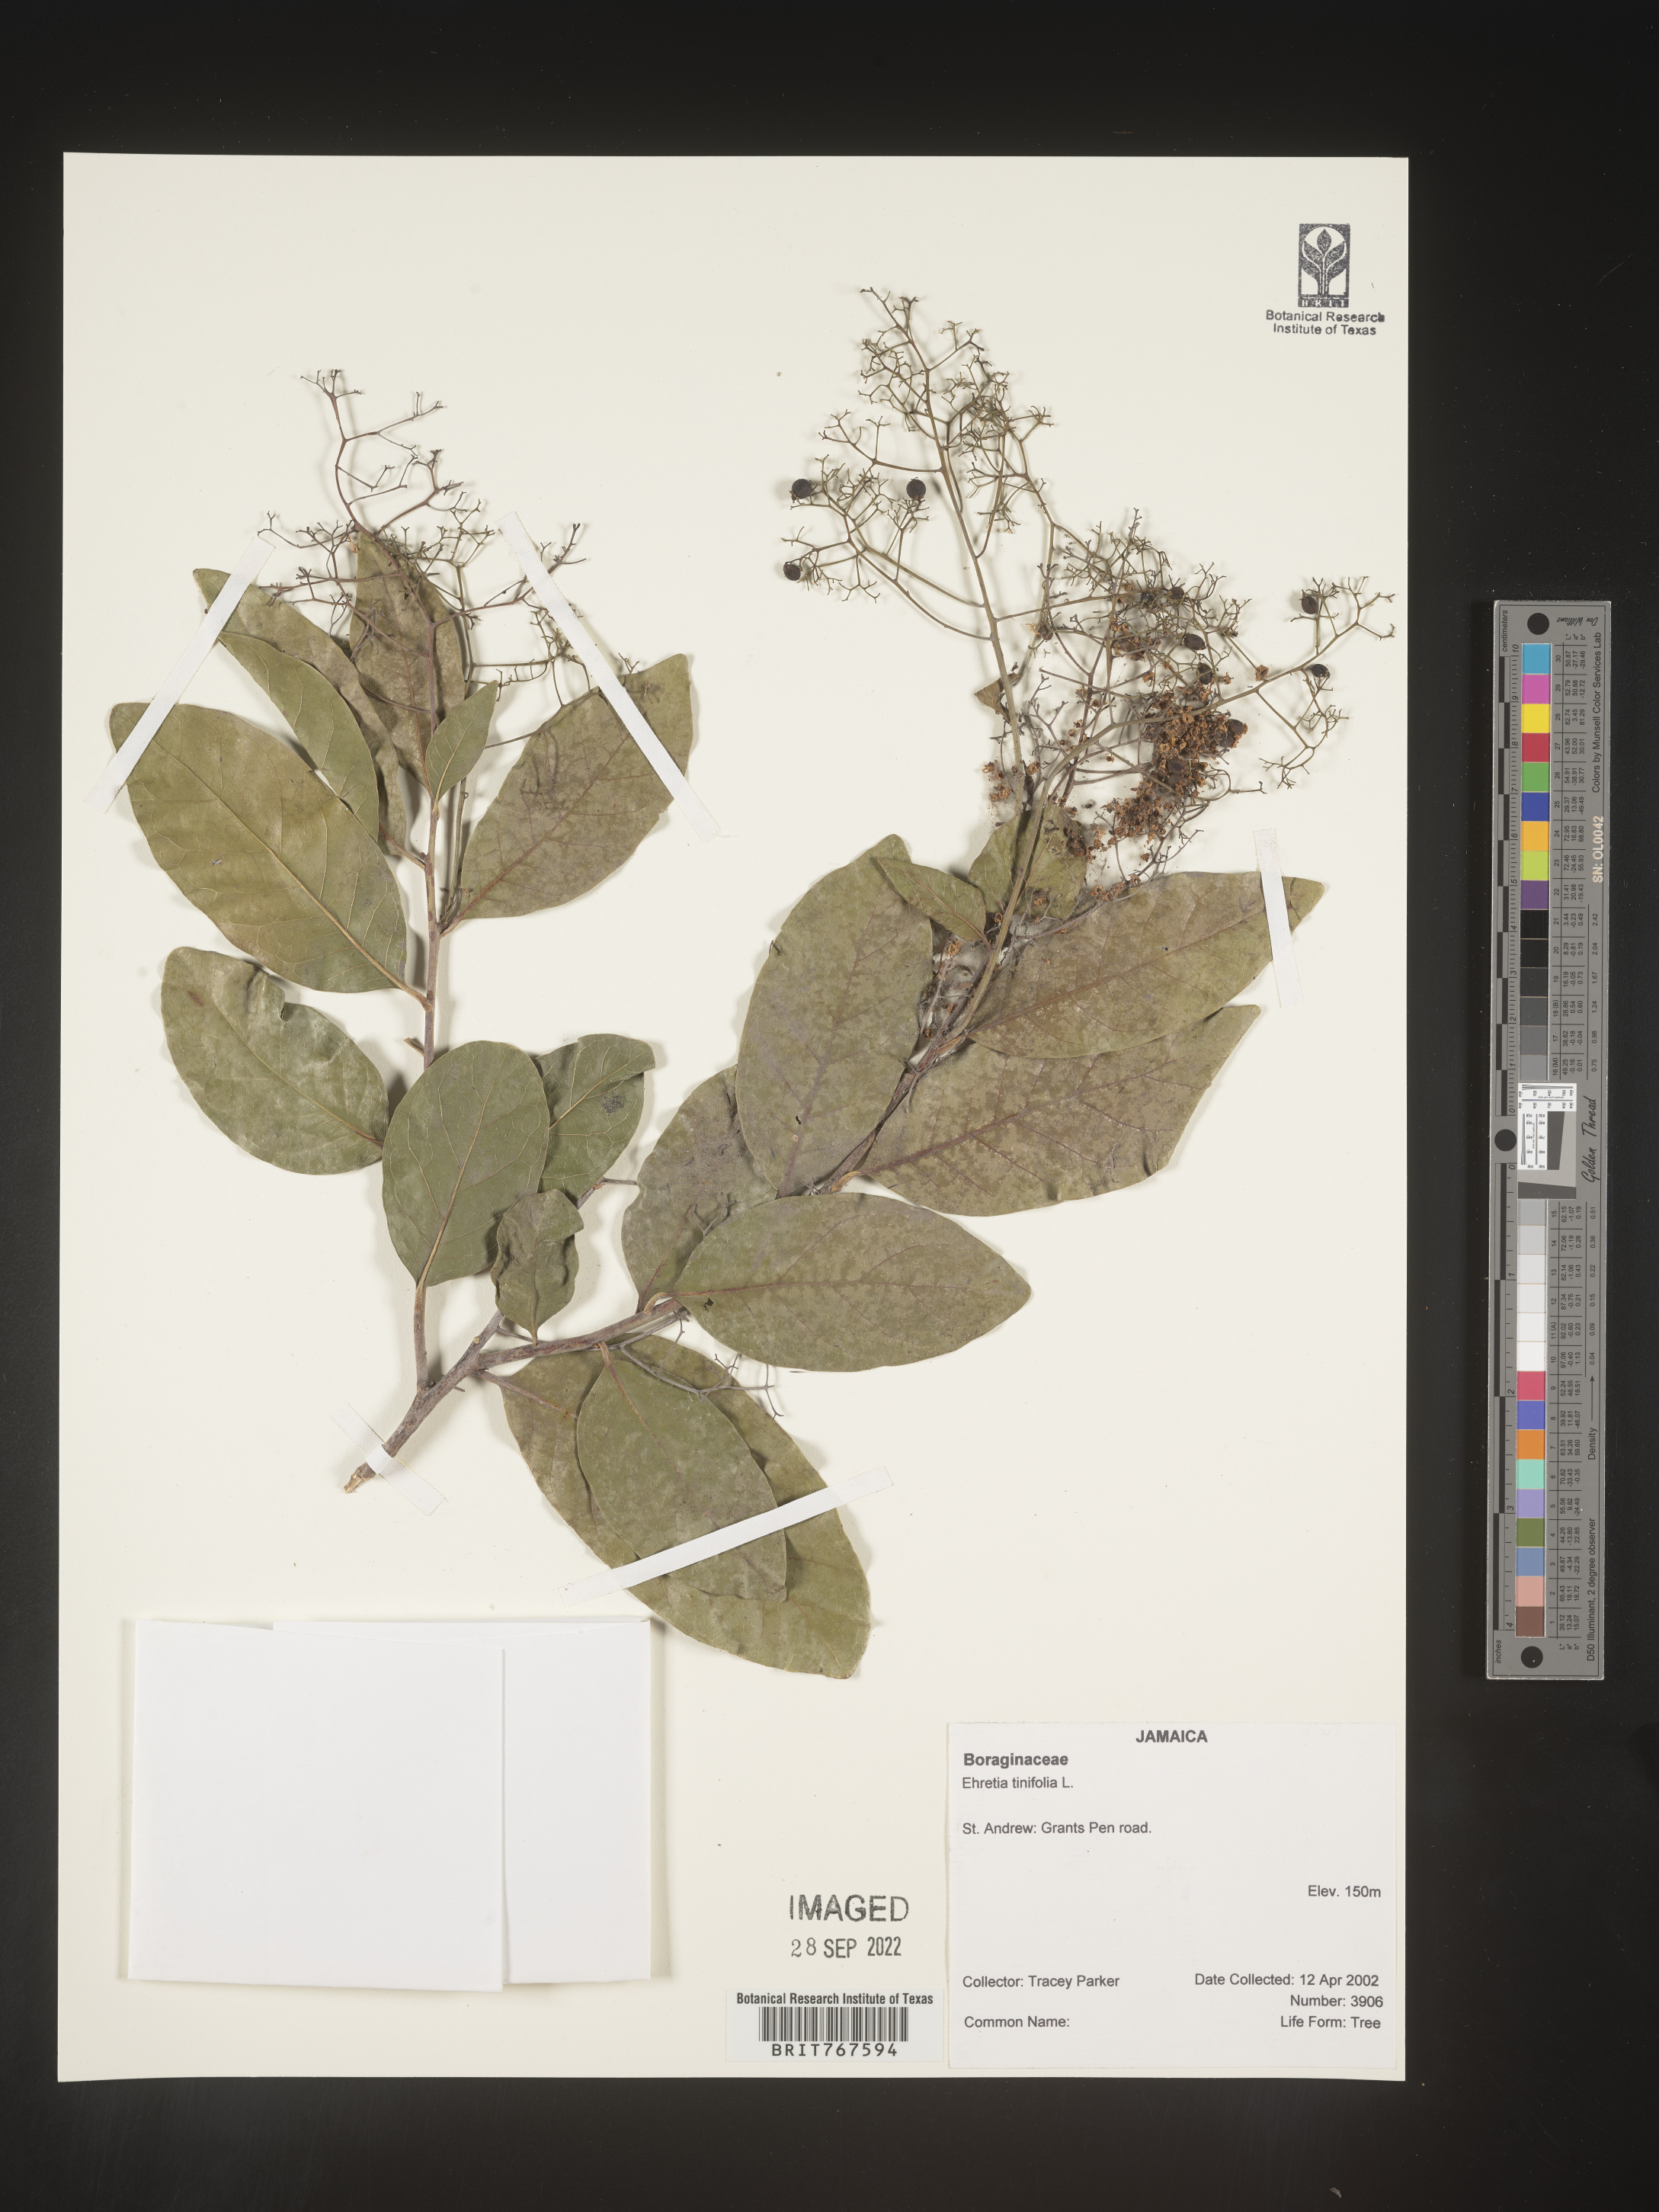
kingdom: Plantae
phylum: Tracheophyta
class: Magnoliopsida
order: Boraginales
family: Ehretiaceae
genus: Ehretia
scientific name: Ehretia
